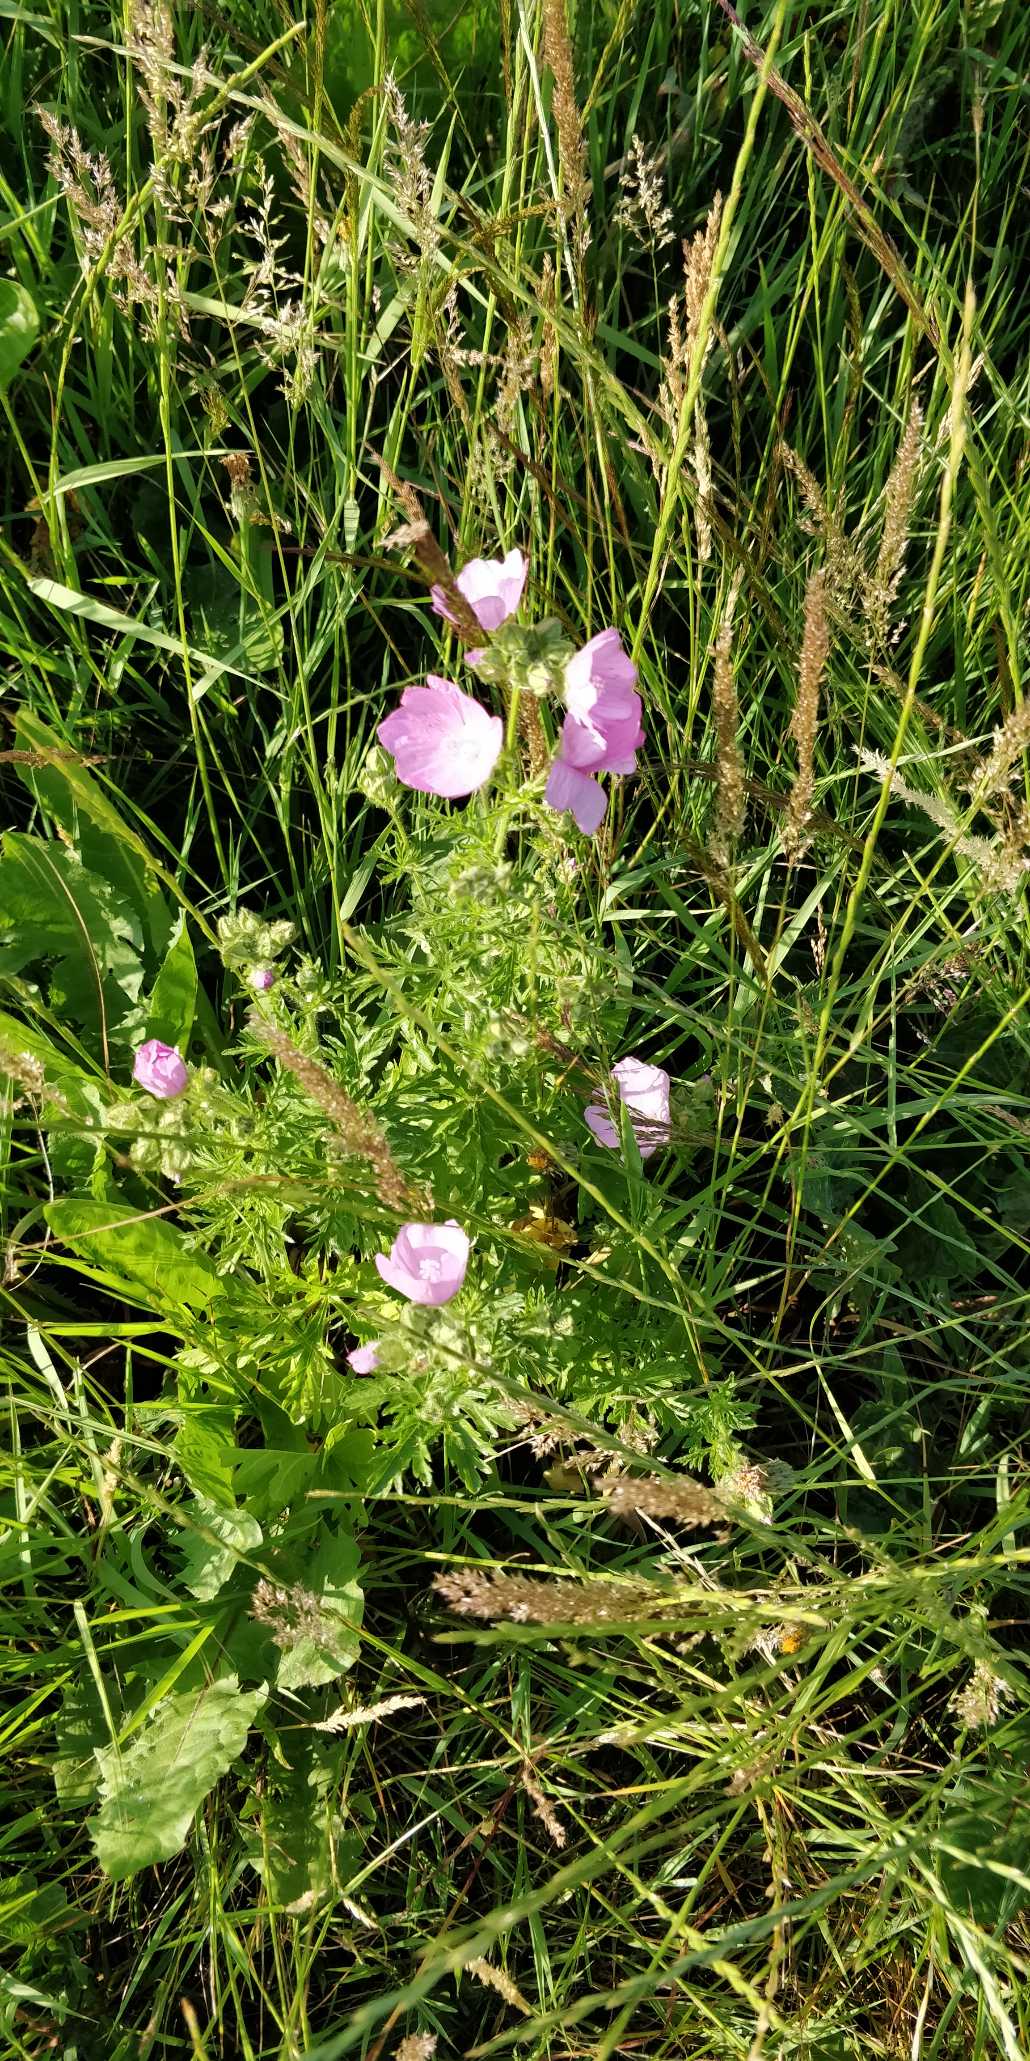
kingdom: Plantae
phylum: Tracheophyta
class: Magnoliopsida
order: Malvales
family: Malvaceae
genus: Malva
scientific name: Malva moschata
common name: Moskus-katost
